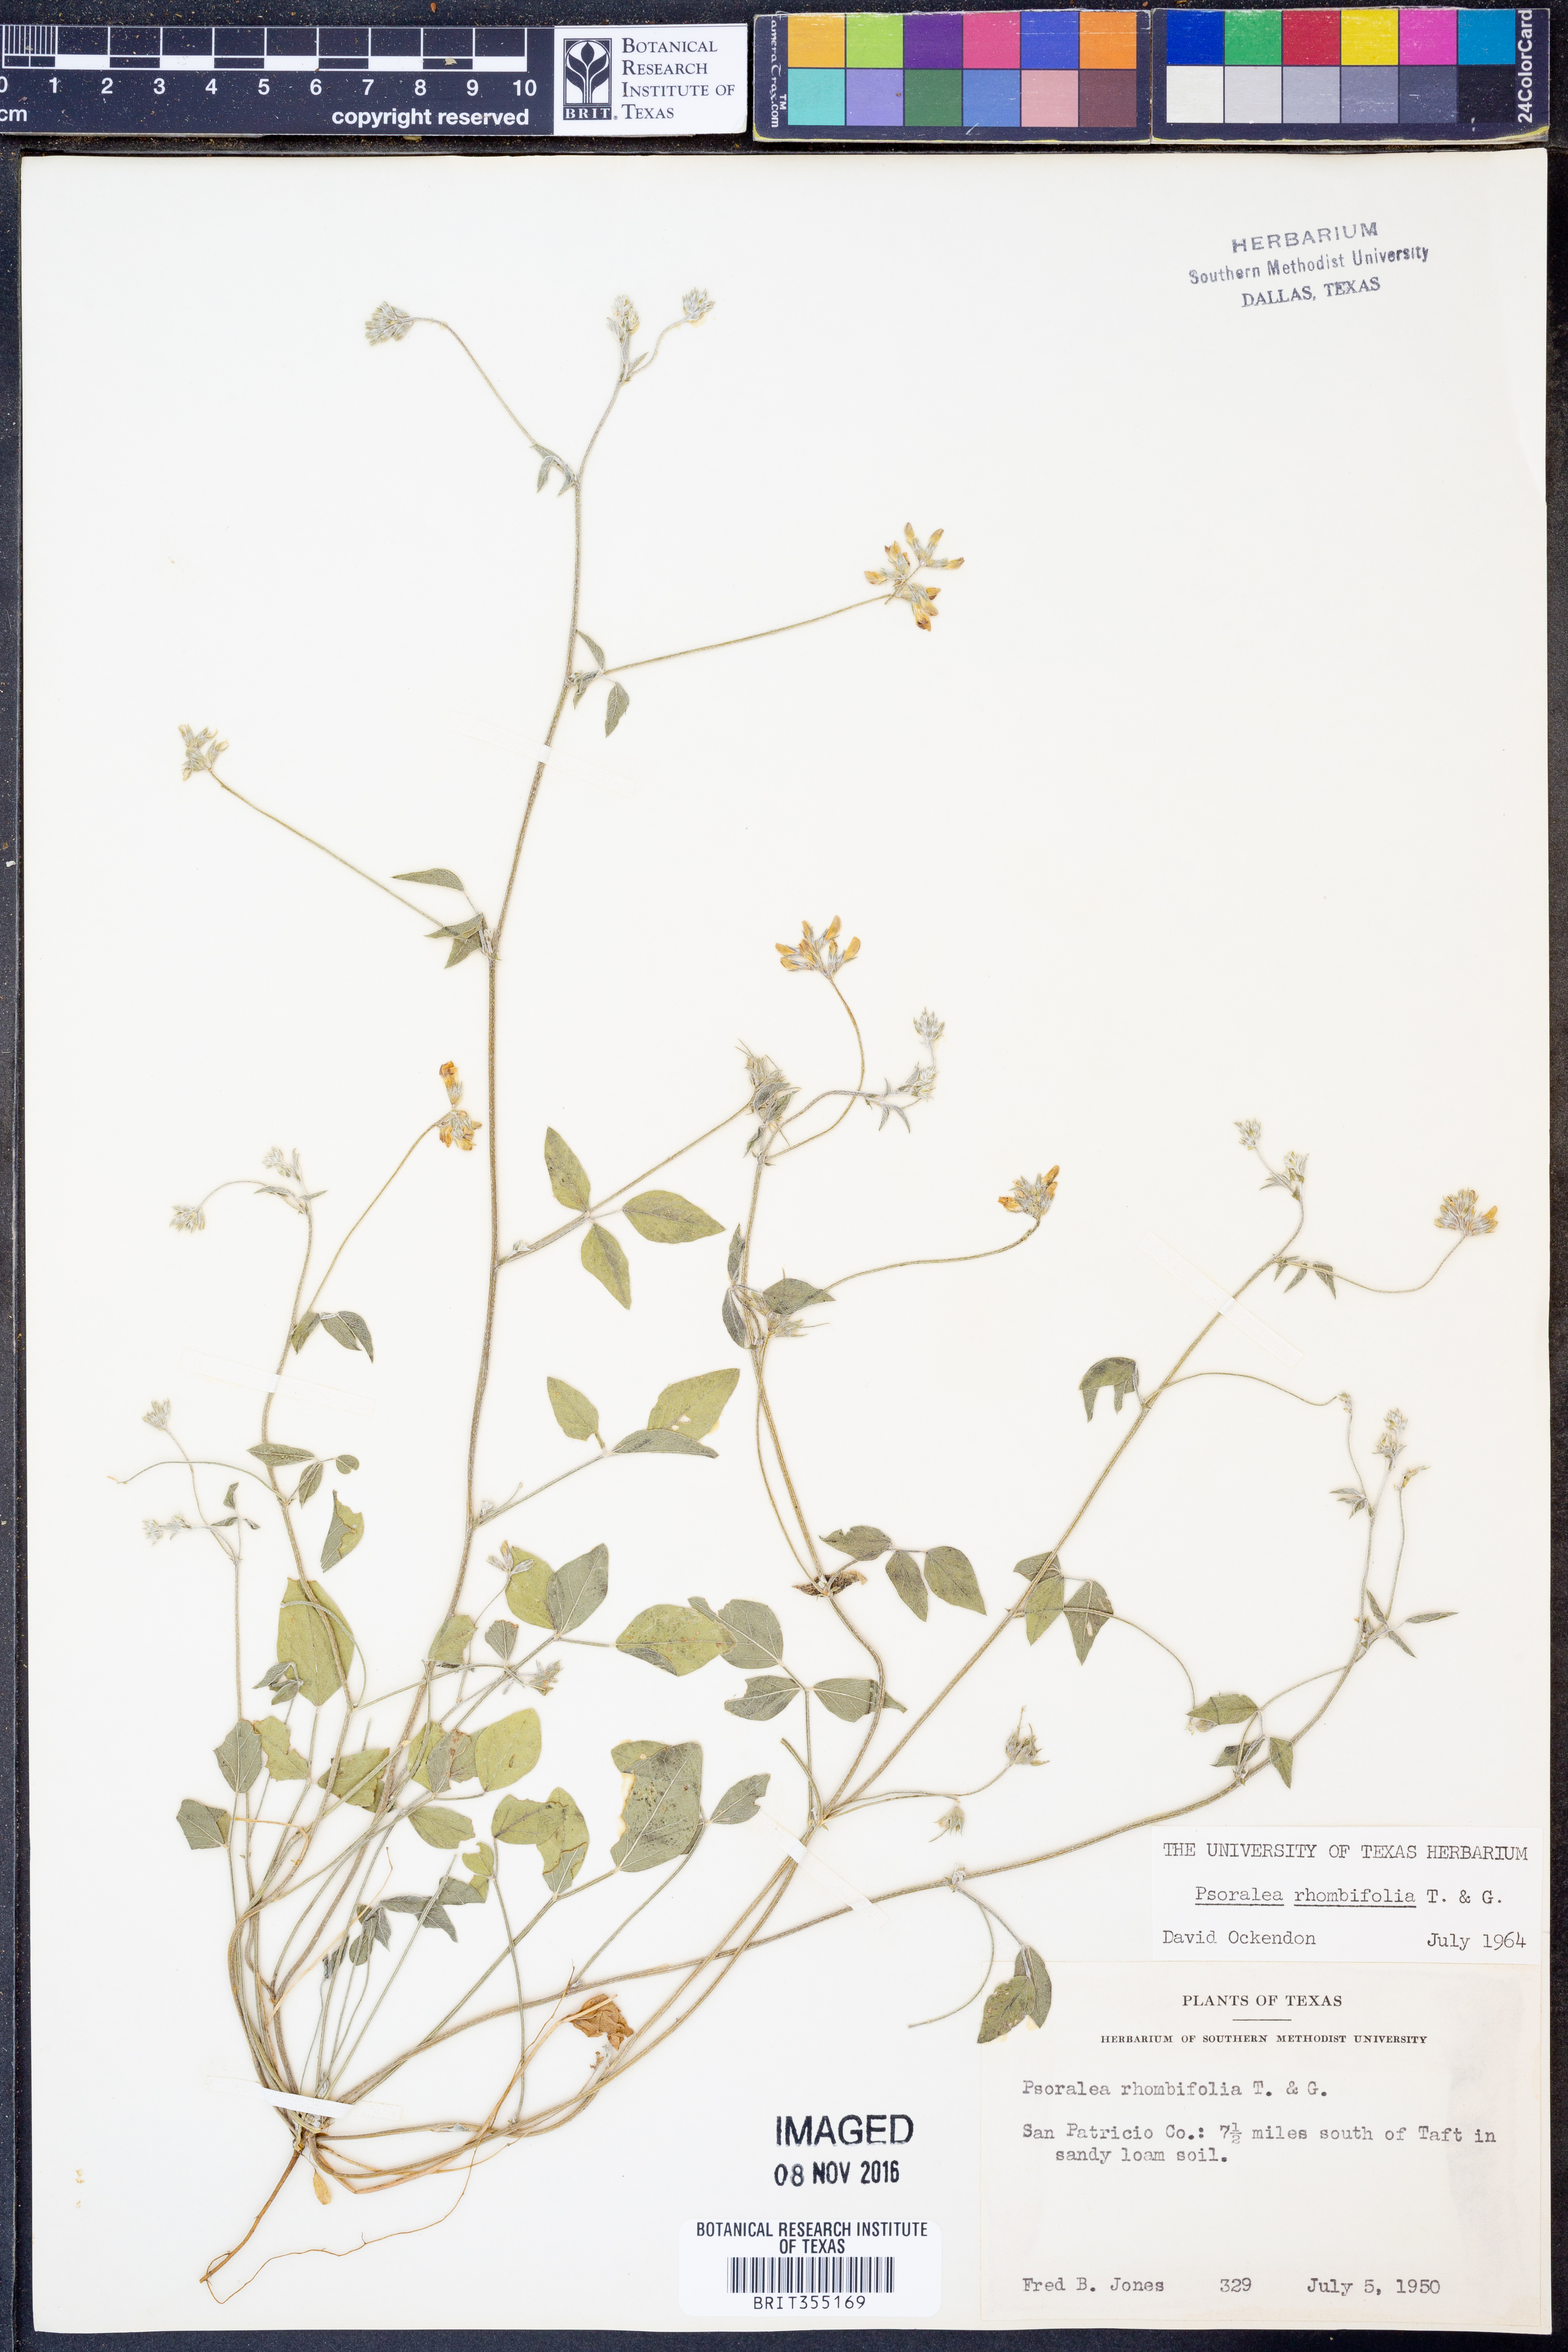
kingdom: Plantae
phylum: Tracheophyta
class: Magnoliopsida
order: Fabales
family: Fabaceae
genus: Pediomelum
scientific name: Pediomelum rhombifolium
